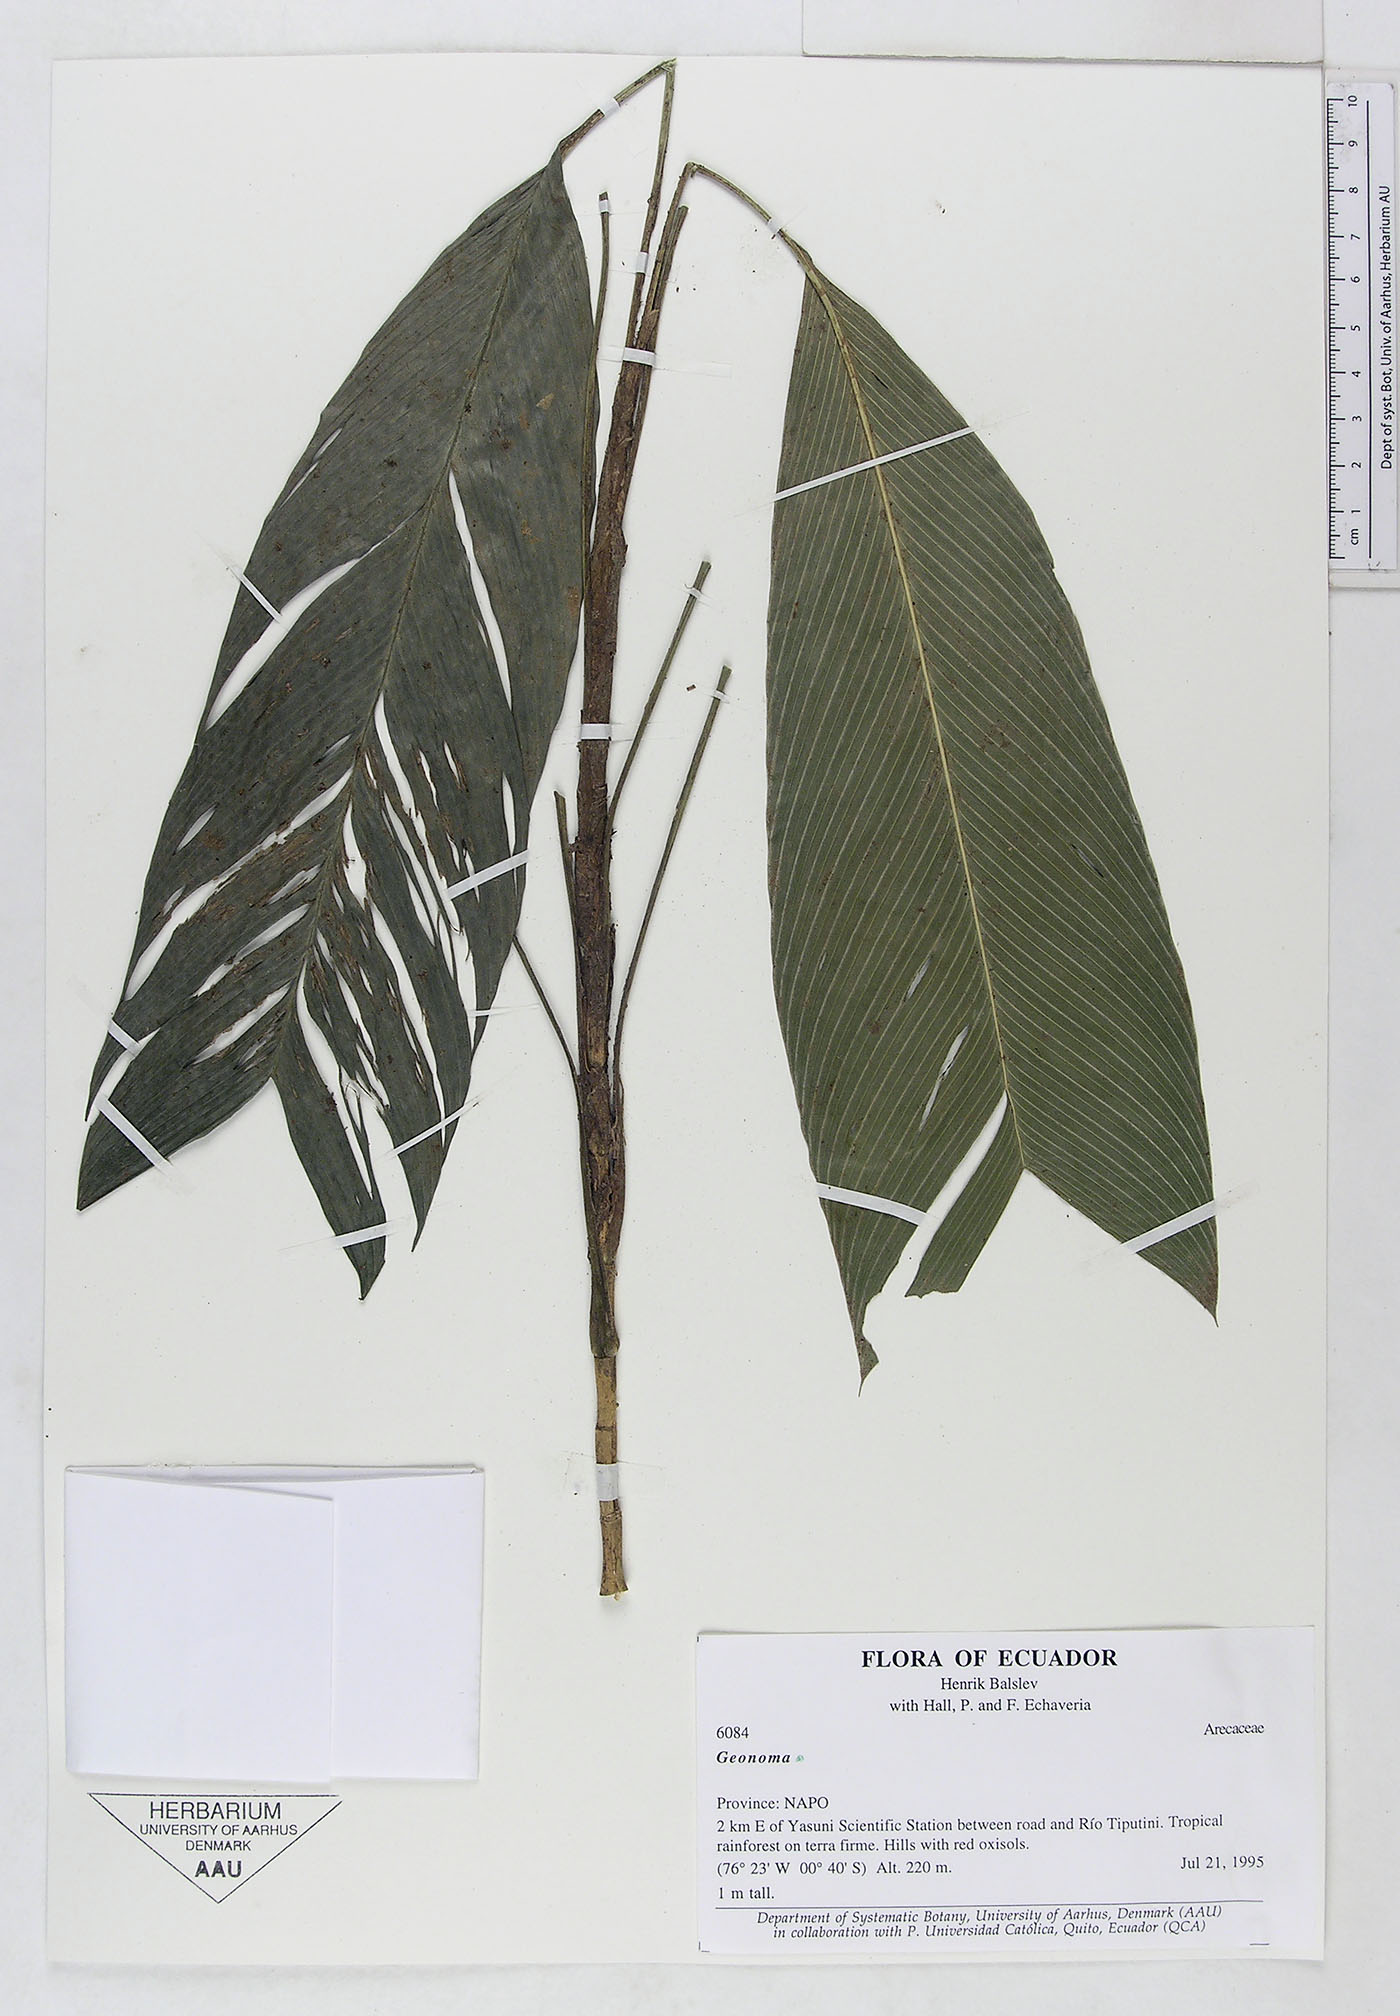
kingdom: Plantae
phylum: Tracheophyta
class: Liliopsida
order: Arecales
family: Arecaceae
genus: Geonoma
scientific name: Geonoma
